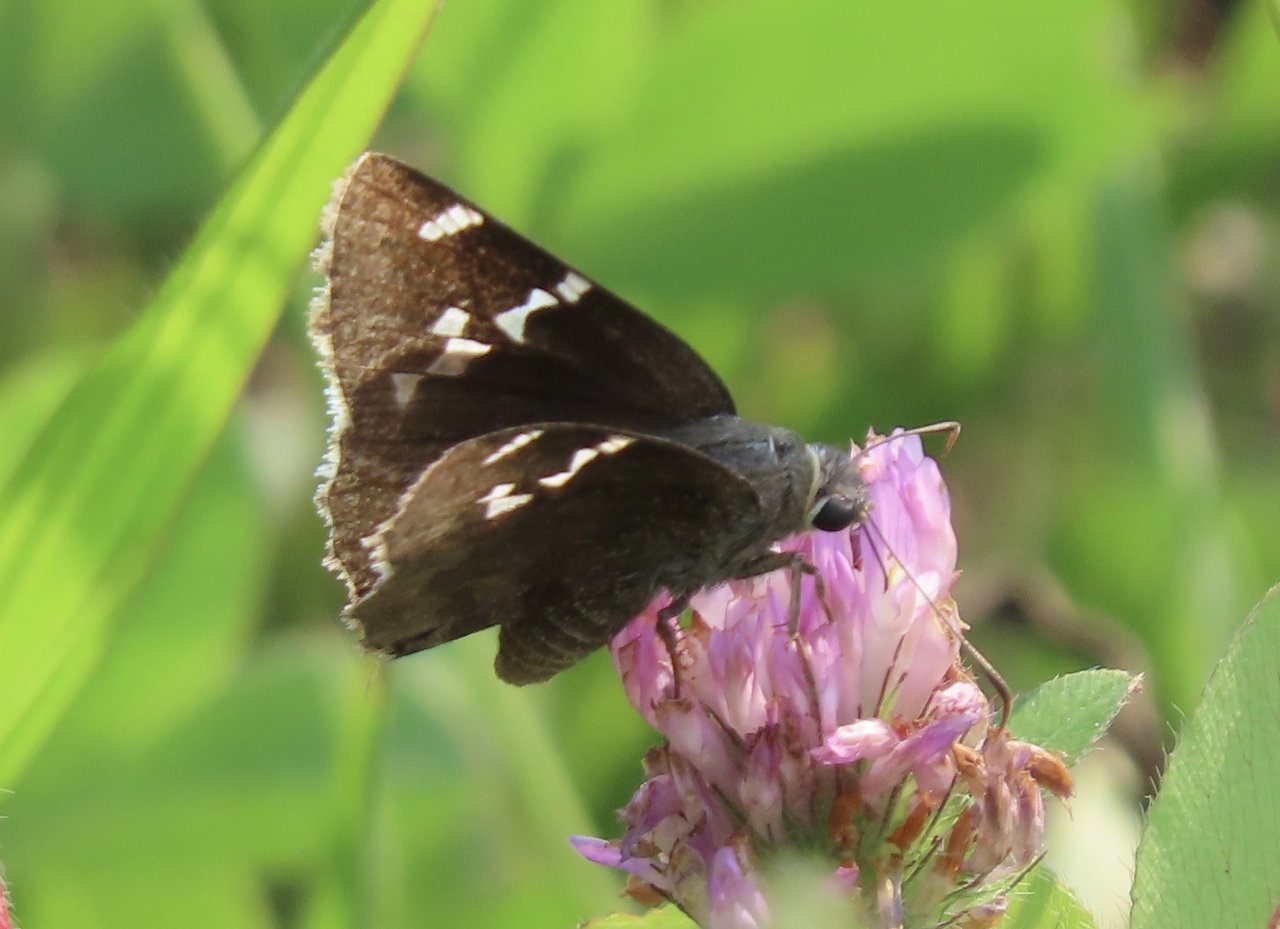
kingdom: Animalia
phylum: Arthropoda
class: Insecta
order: Lepidoptera
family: Hesperiidae
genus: Autochton
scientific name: Autochton
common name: Southern Cloudywing
